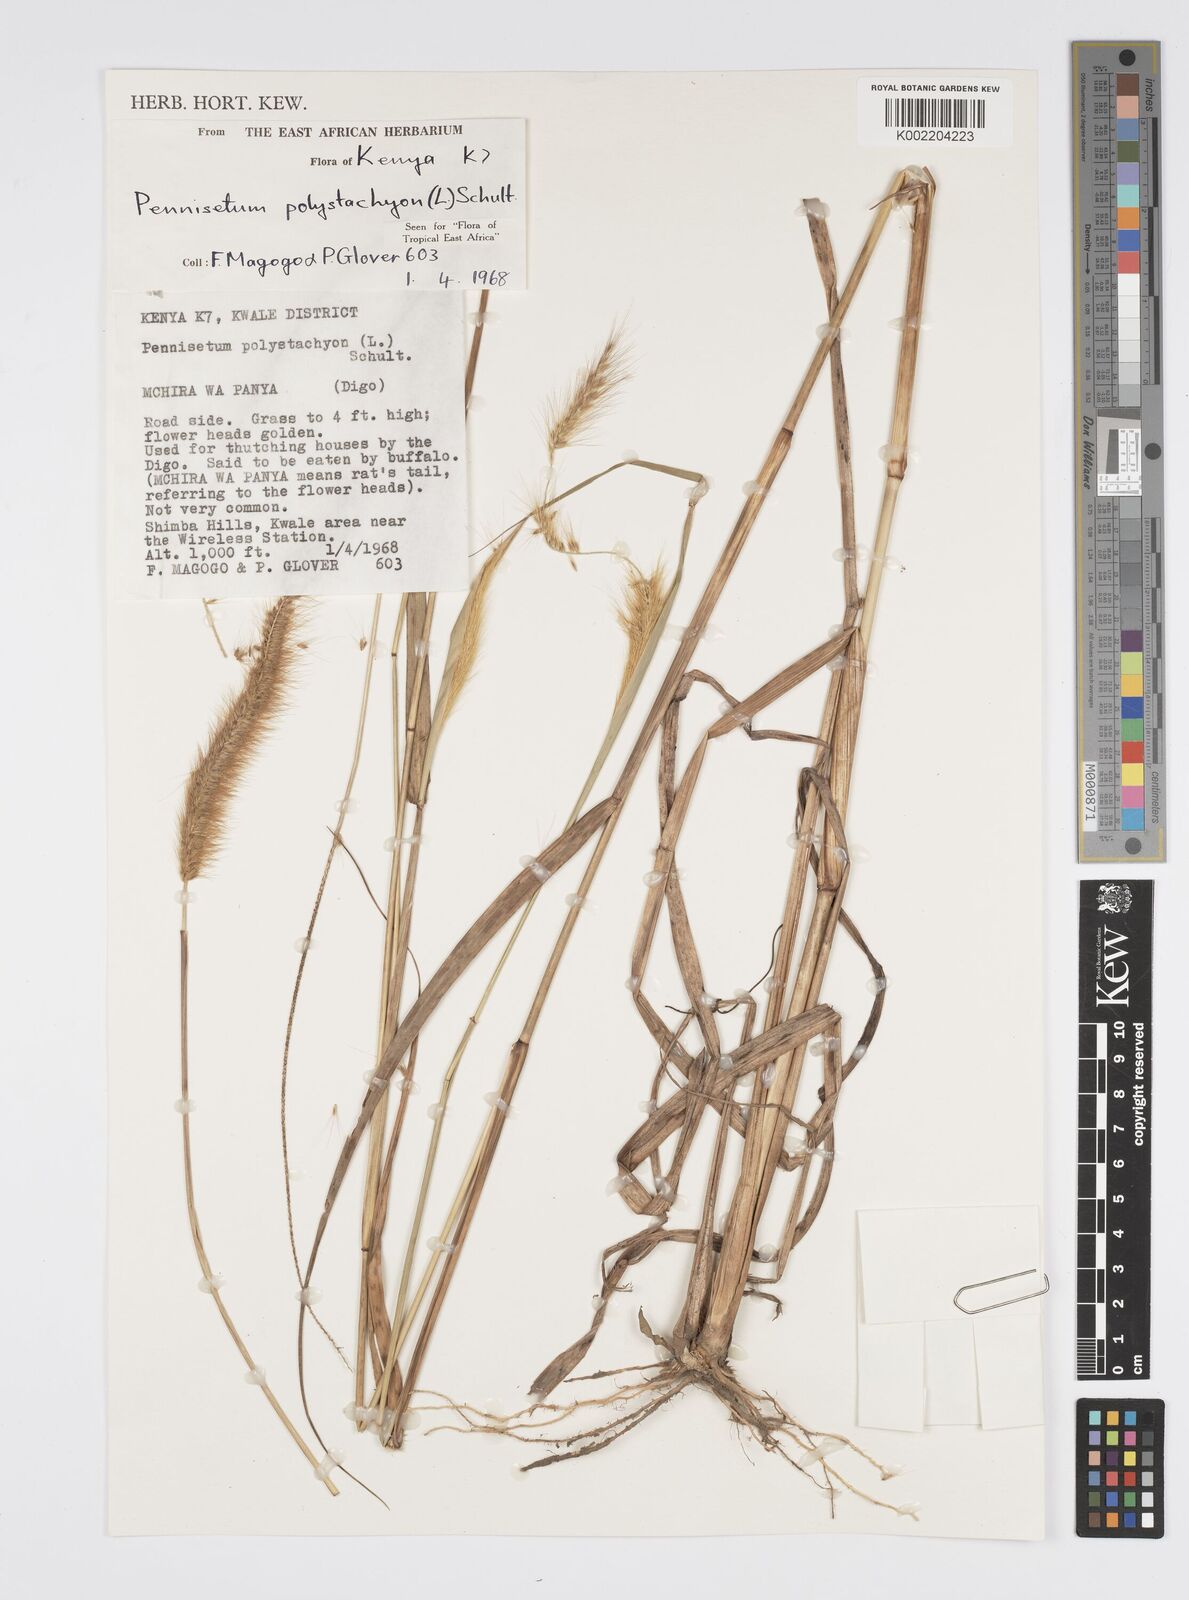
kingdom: Plantae
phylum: Tracheophyta
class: Liliopsida
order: Poales
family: Poaceae
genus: Setaria
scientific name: Setaria parviflora
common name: Knotroot bristle-grass
